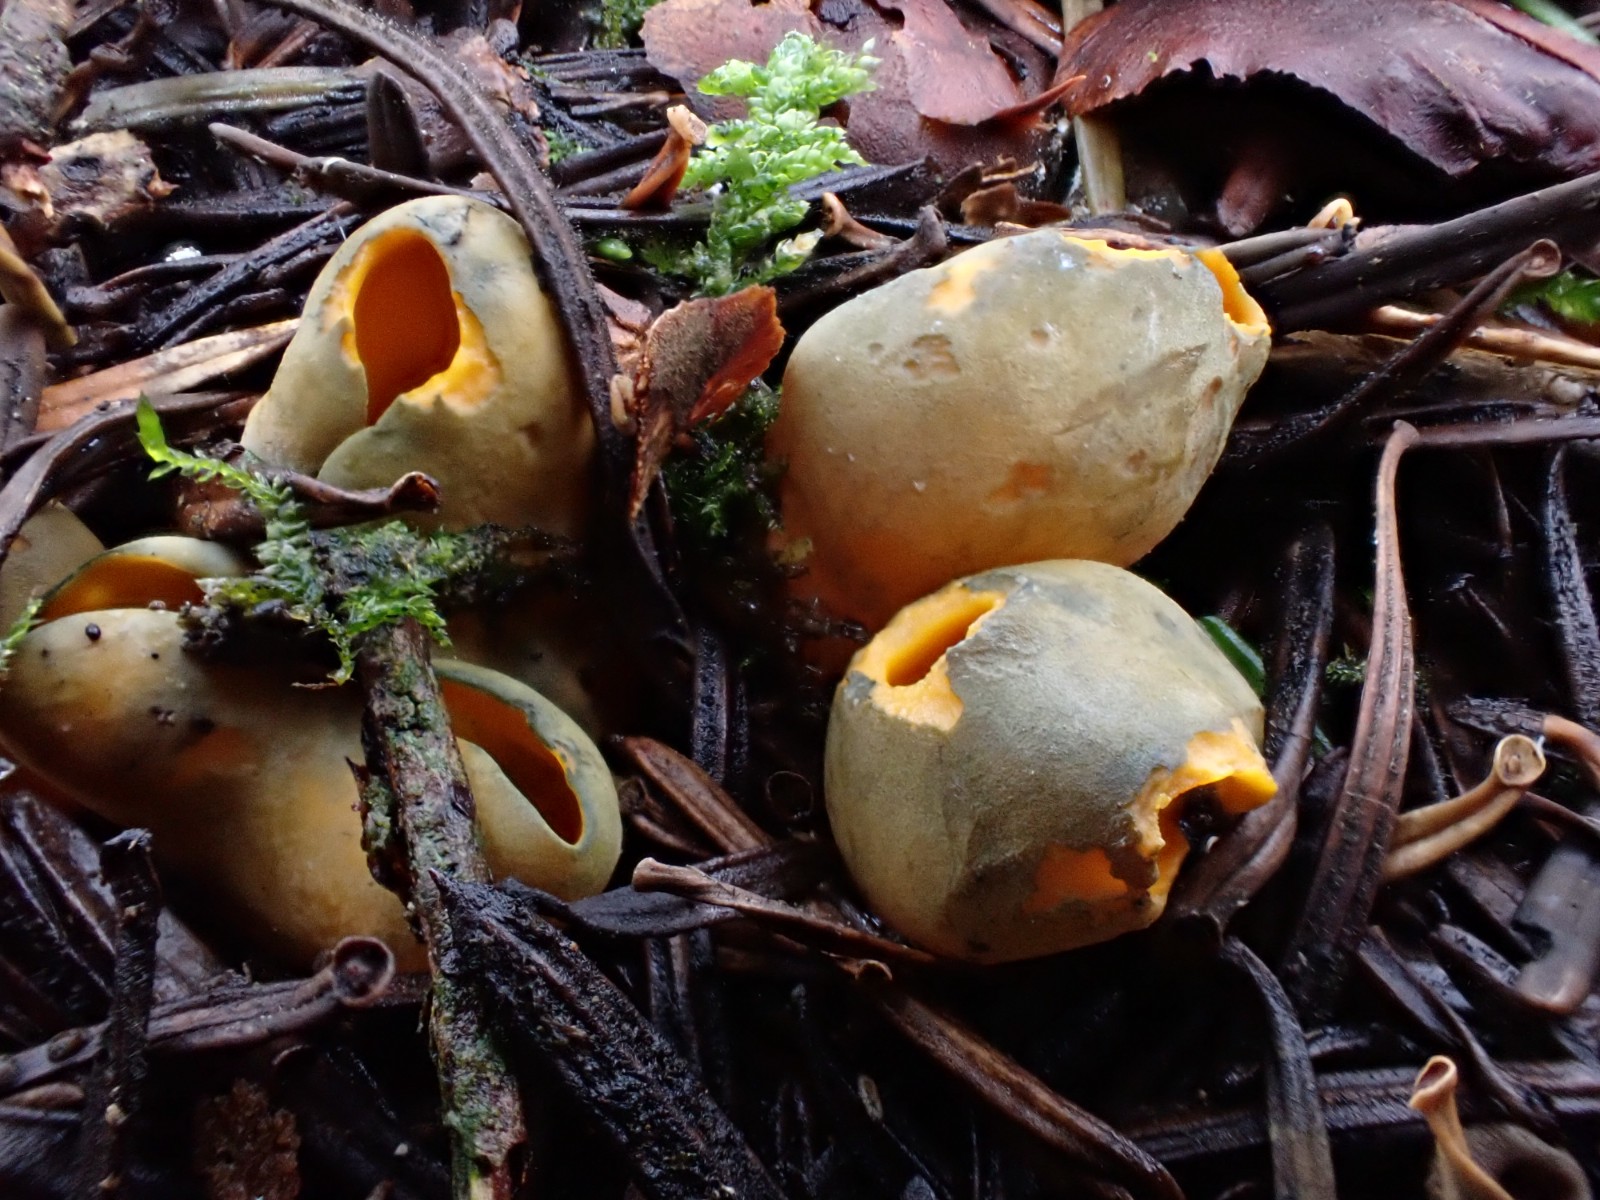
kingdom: Fungi
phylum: Ascomycota
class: Pezizomycetes
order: Pezizales
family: Caloscyphaceae
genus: Caloscypha
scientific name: Caloscypha fulgens
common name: jadebæger
